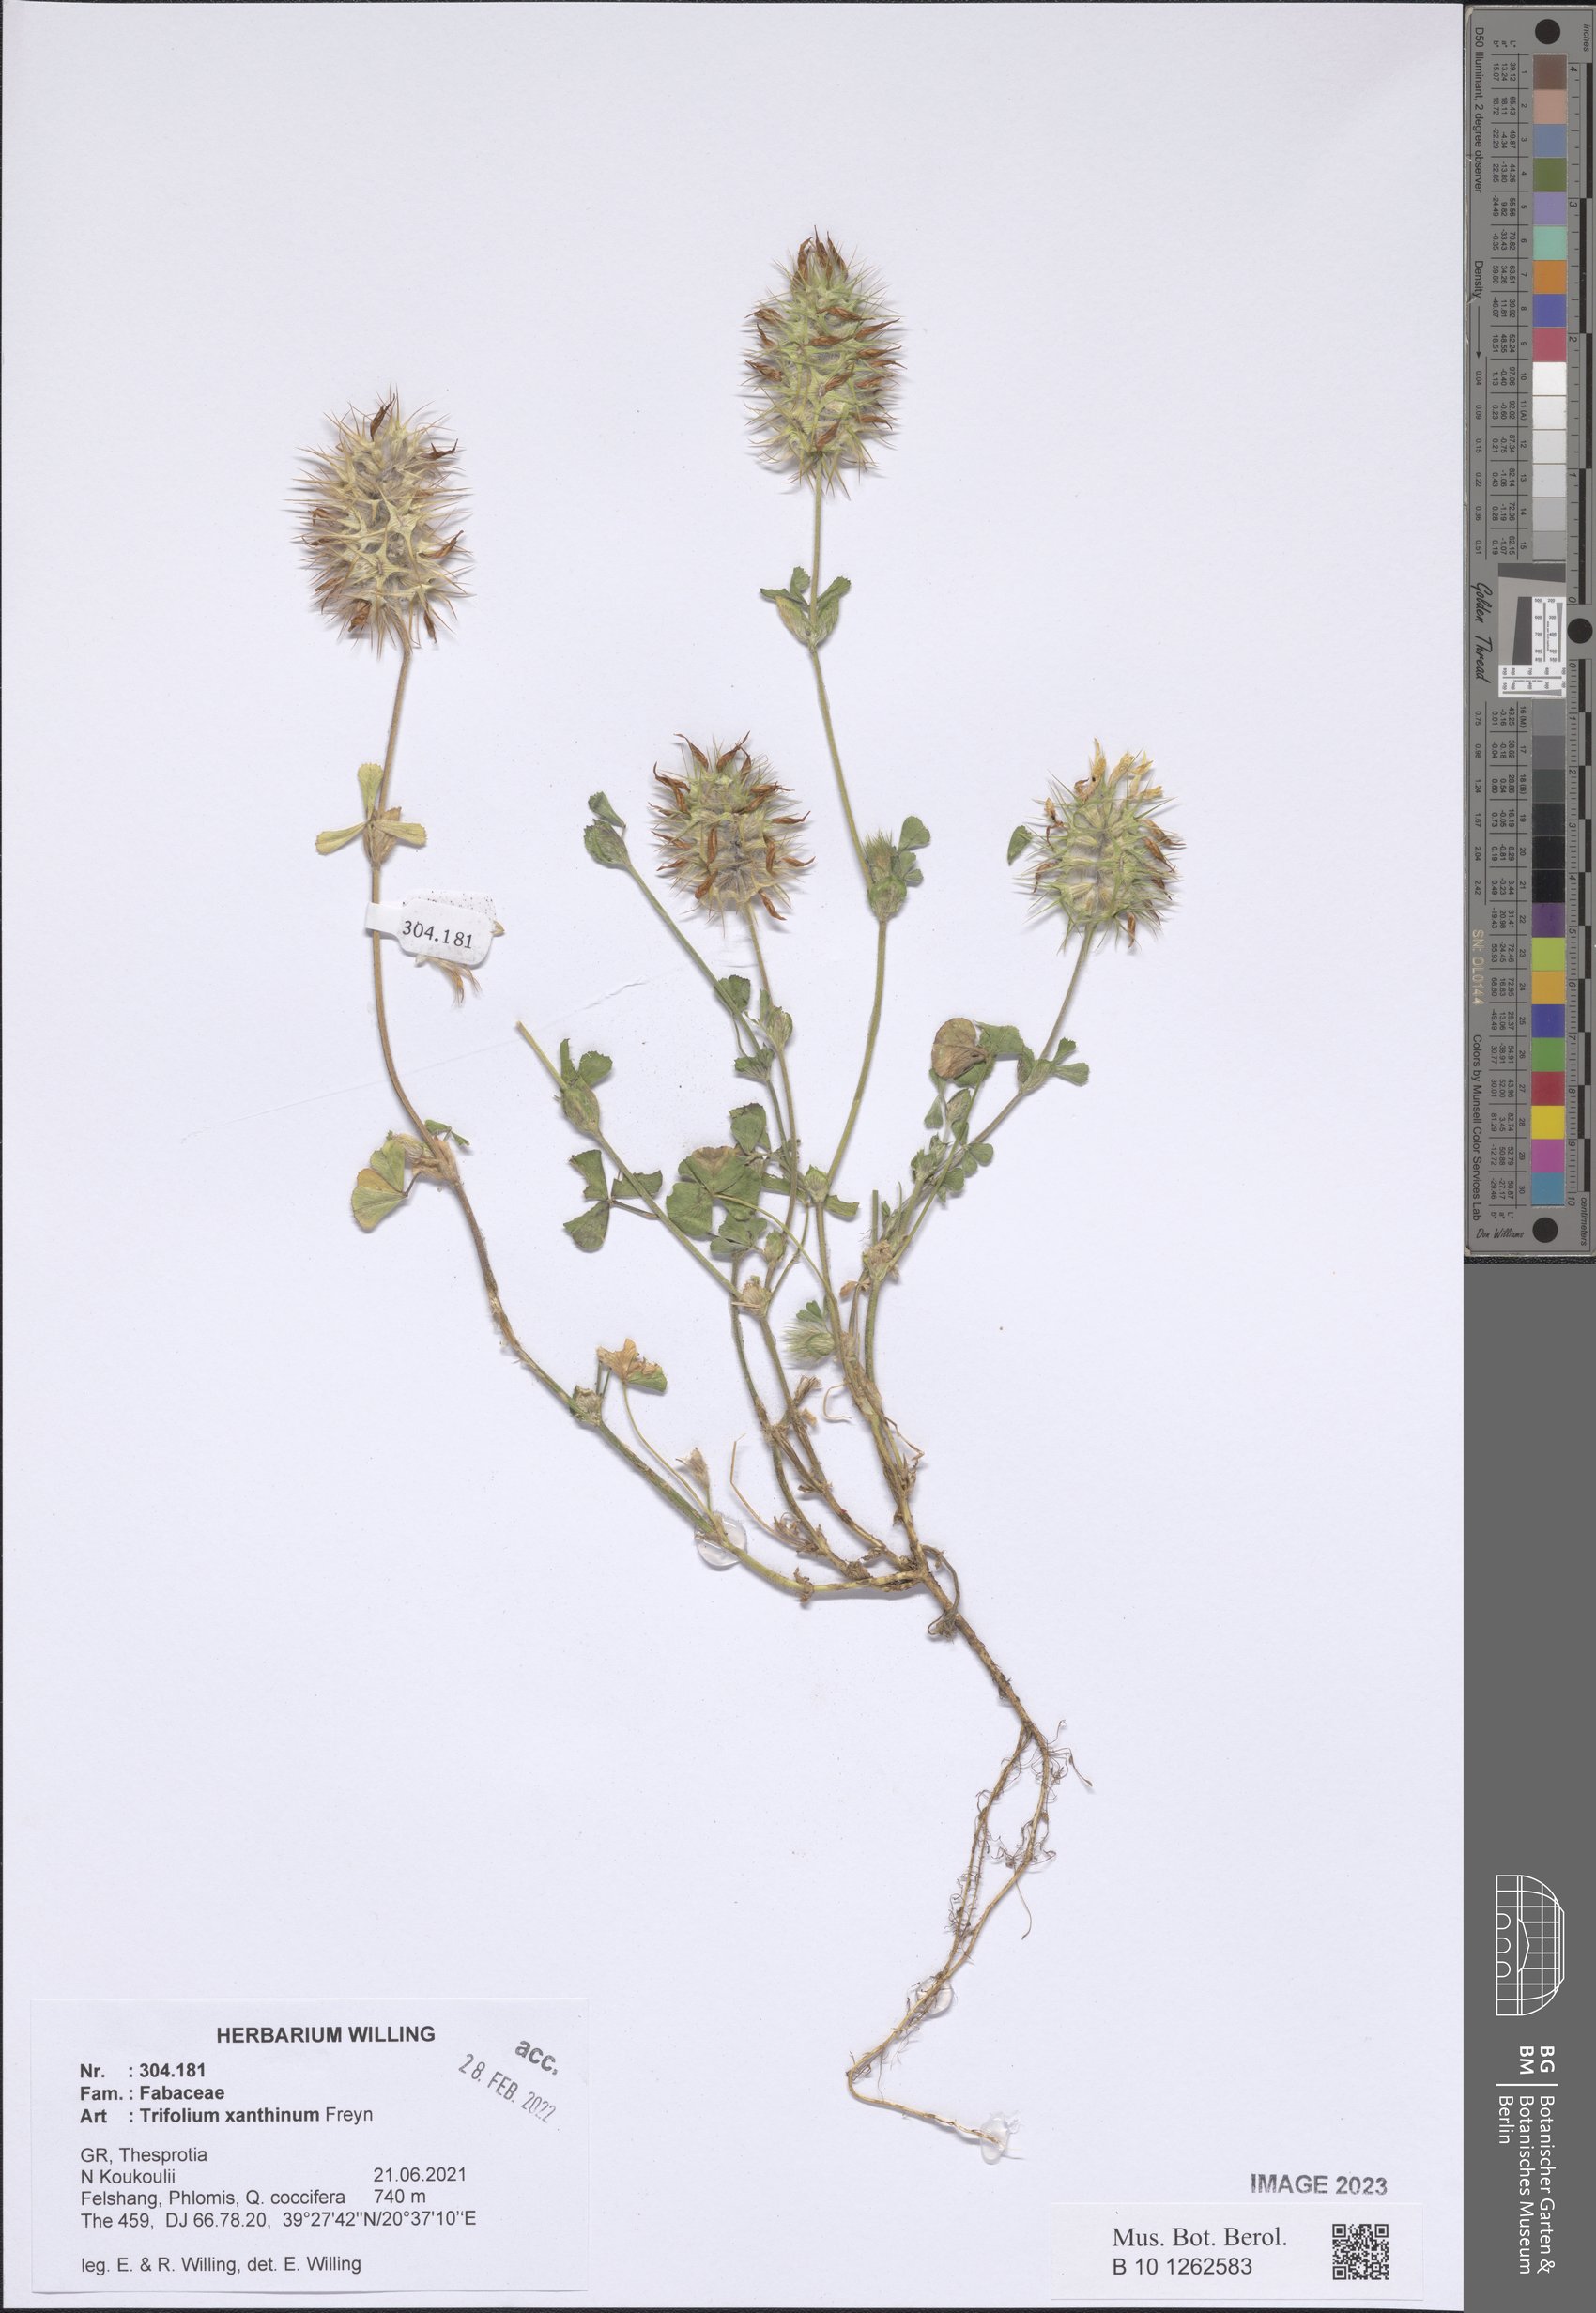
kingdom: Plantae
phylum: Tracheophyta
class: Magnoliopsida
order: Fabales
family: Fabaceae
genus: Trifolium
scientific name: Trifolium xanthinum
